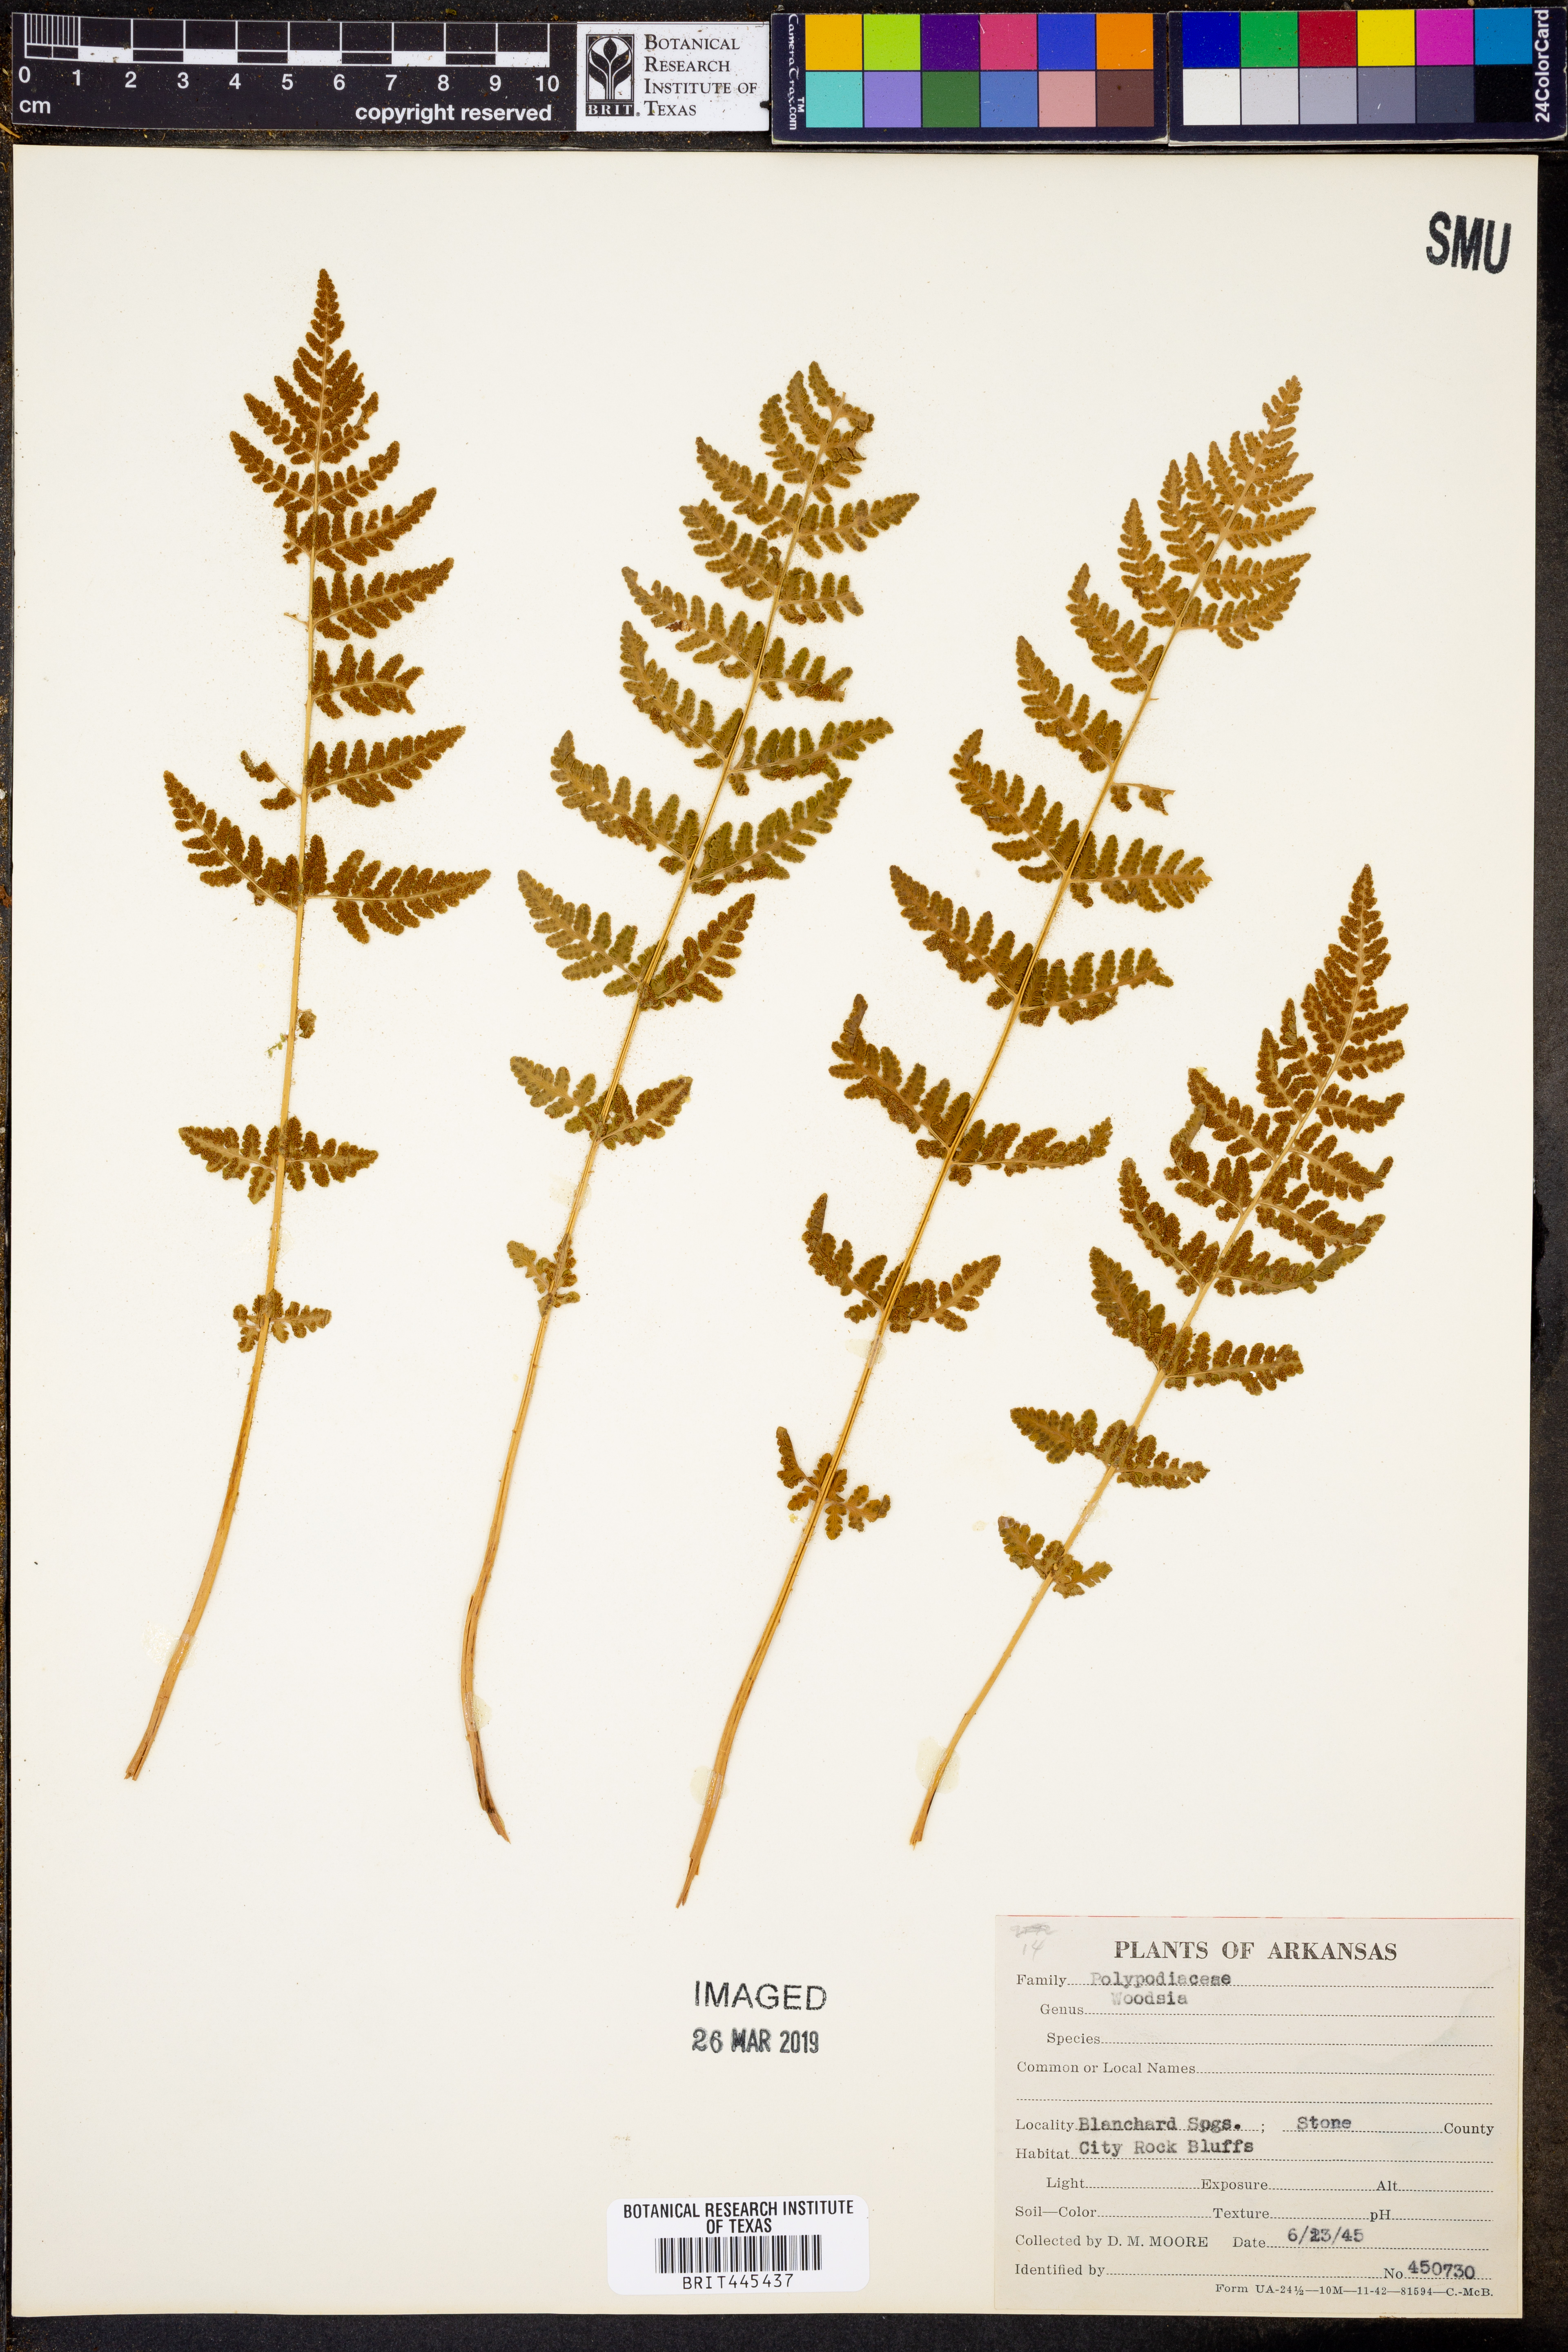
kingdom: Plantae
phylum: Tracheophyta
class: Polypodiopsida
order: Polypodiales
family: Woodsiaceae
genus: Woodsia
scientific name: Woodsia
